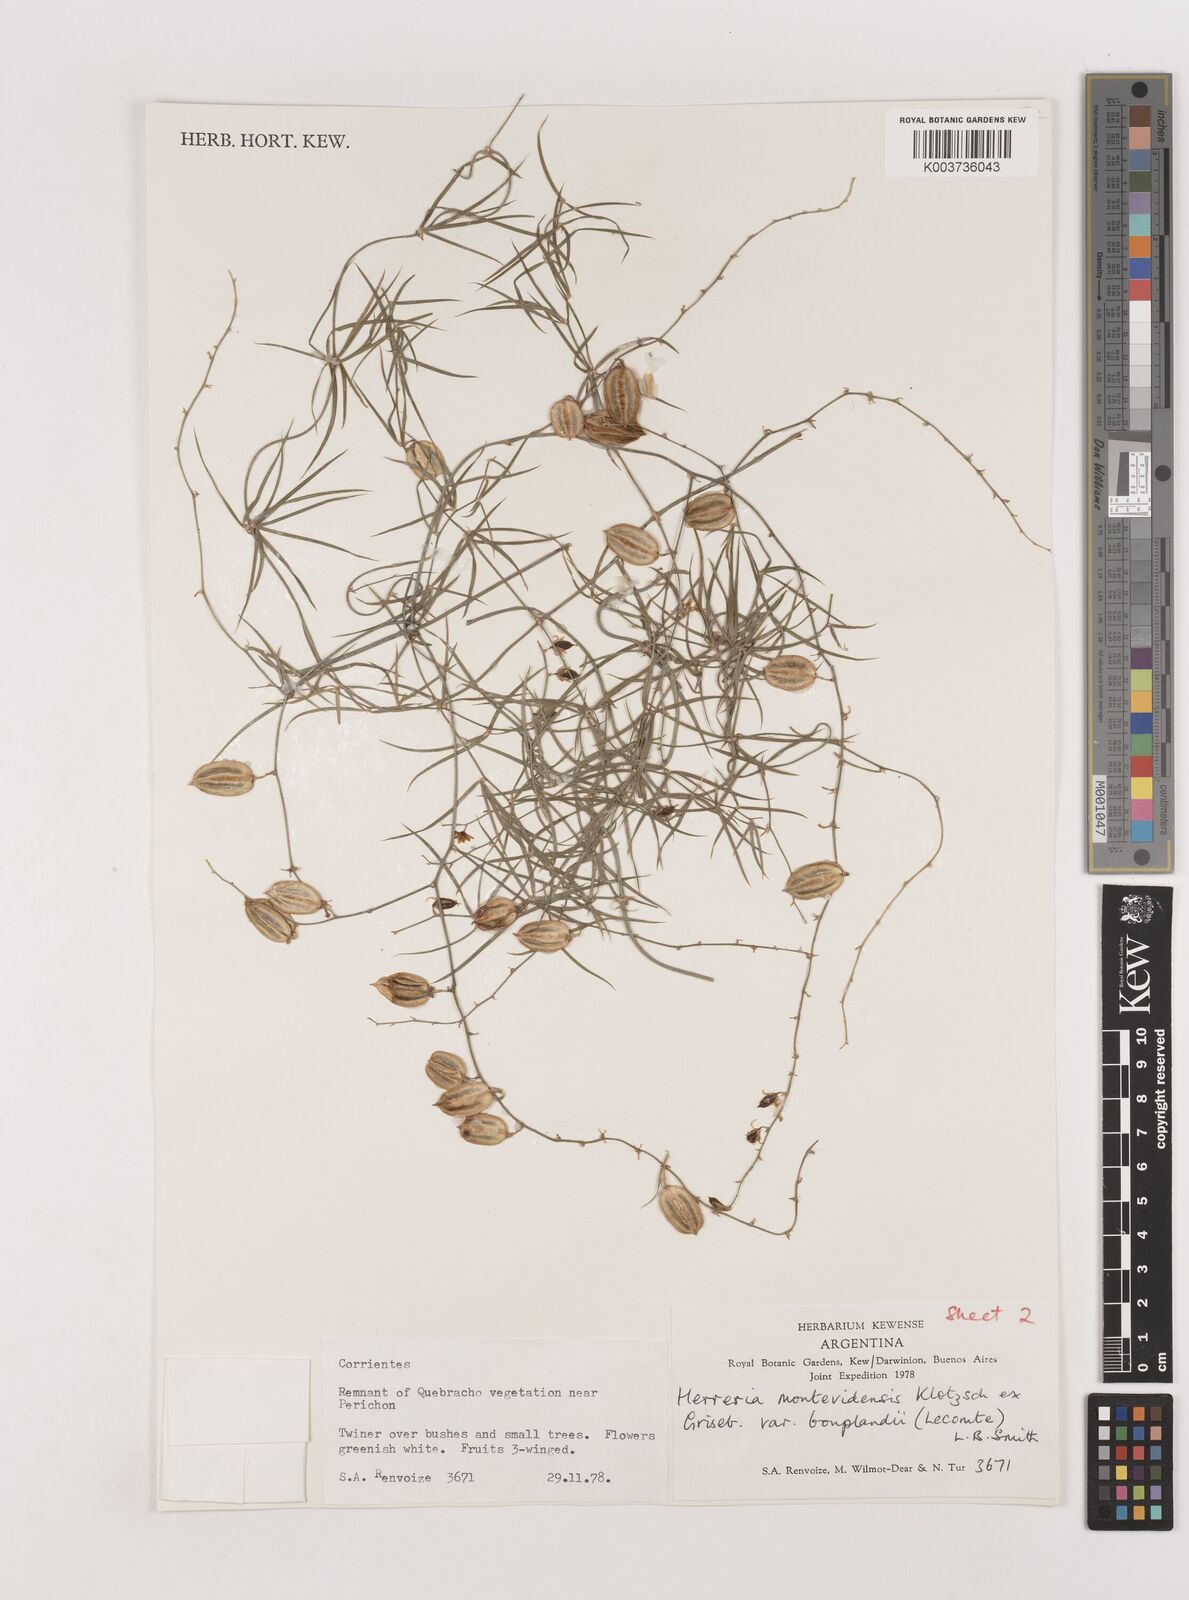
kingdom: Plantae
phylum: Tracheophyta
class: Liliopsida
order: Asparagales
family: Asparagaceae
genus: Herreria
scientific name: Herreria montevidensis
